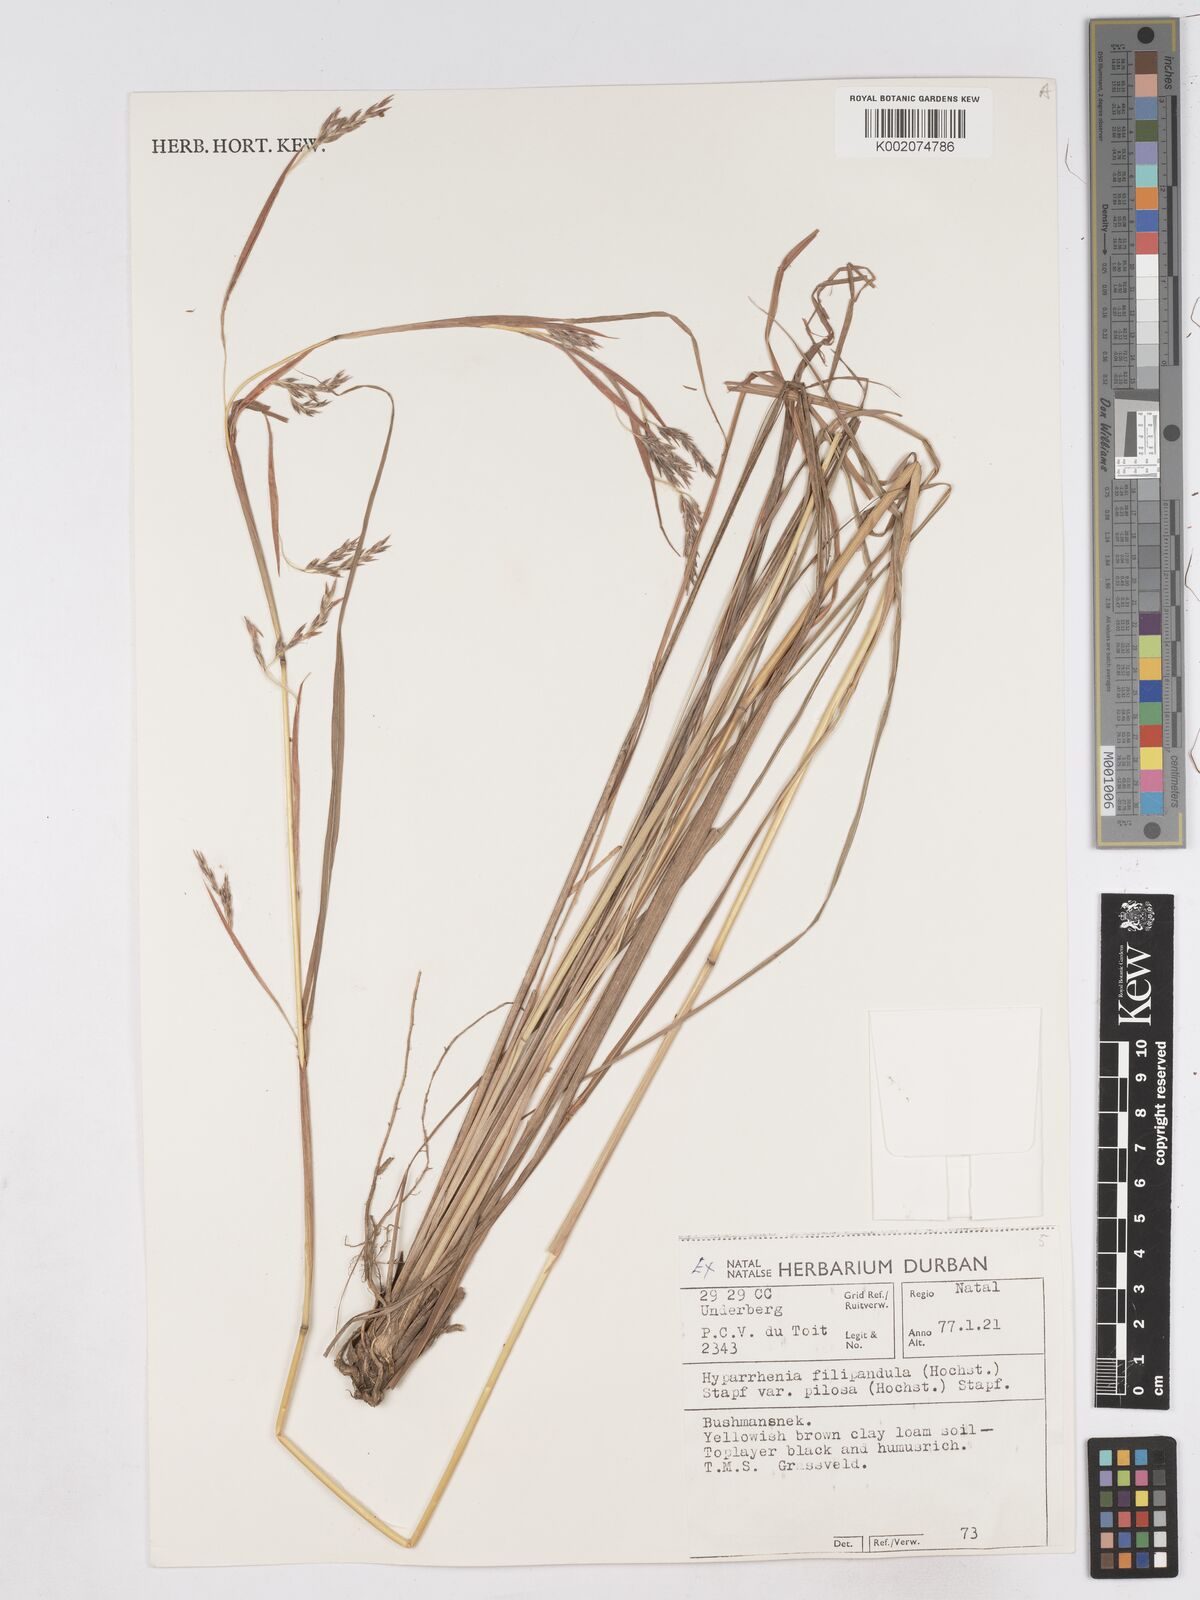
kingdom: Plantae
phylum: Tracheophyta
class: Liliopsida
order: Poales
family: Poaceae
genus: Hyparrhenia
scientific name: Hyparrhenia filipendula
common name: Tambookie grass
